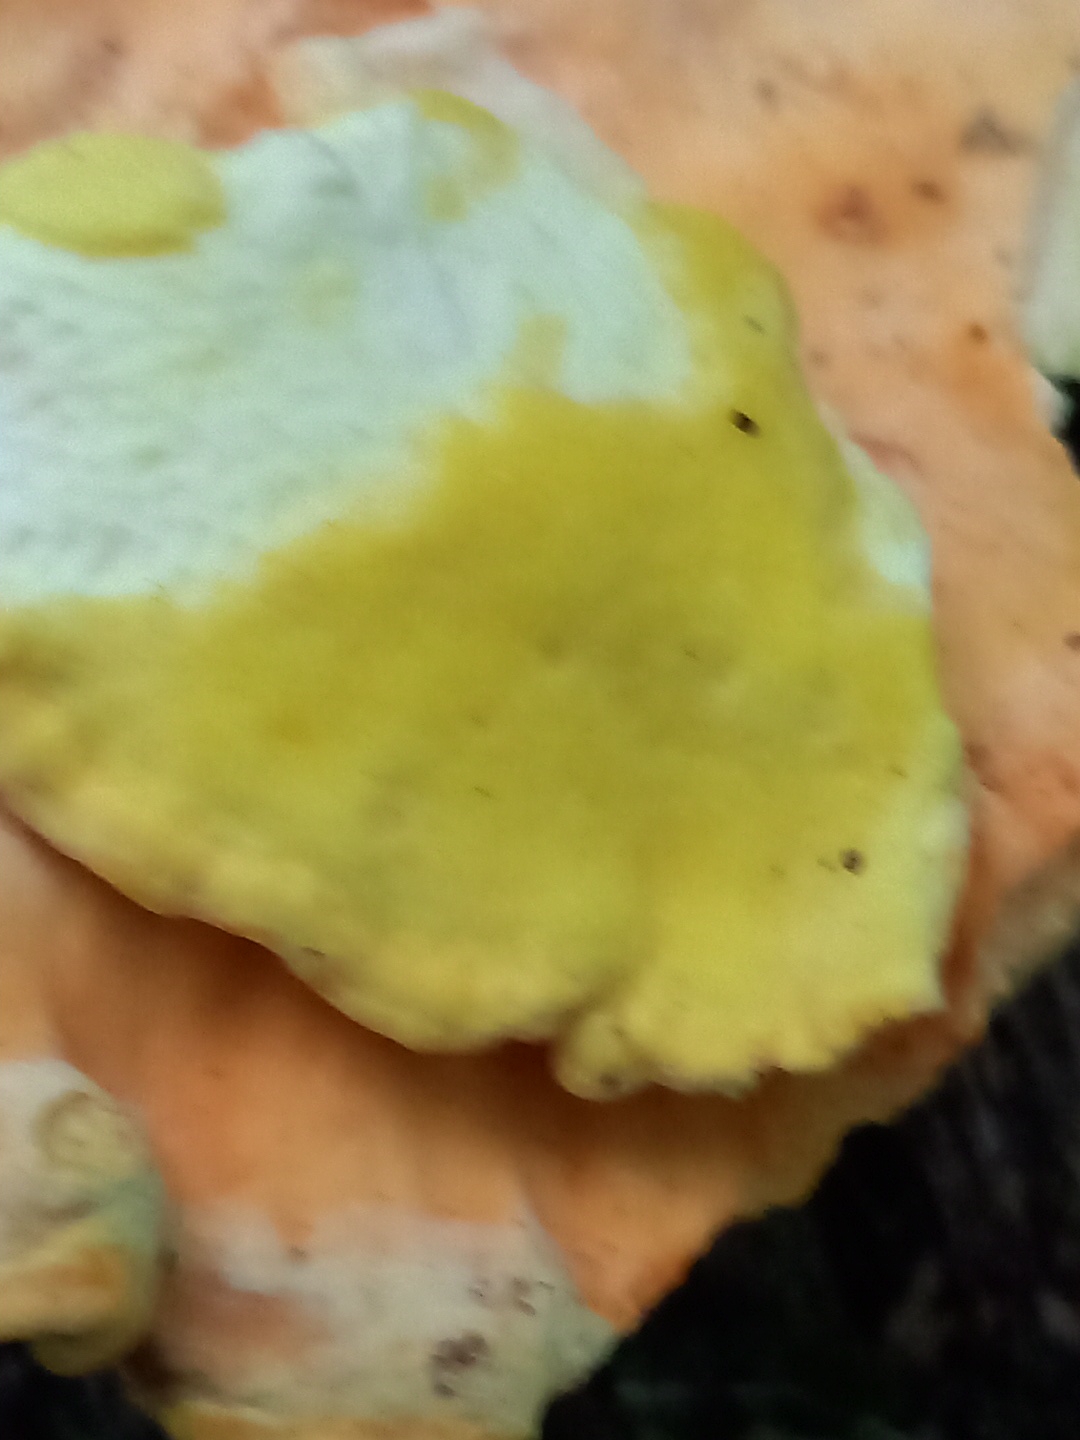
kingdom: Fungi
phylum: Basidiomycota
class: Agaricomycetes
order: Polyporales
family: Laetiporaceae
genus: Laetiporus
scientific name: Laetiporus sulphureus
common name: svovlporesvamp
